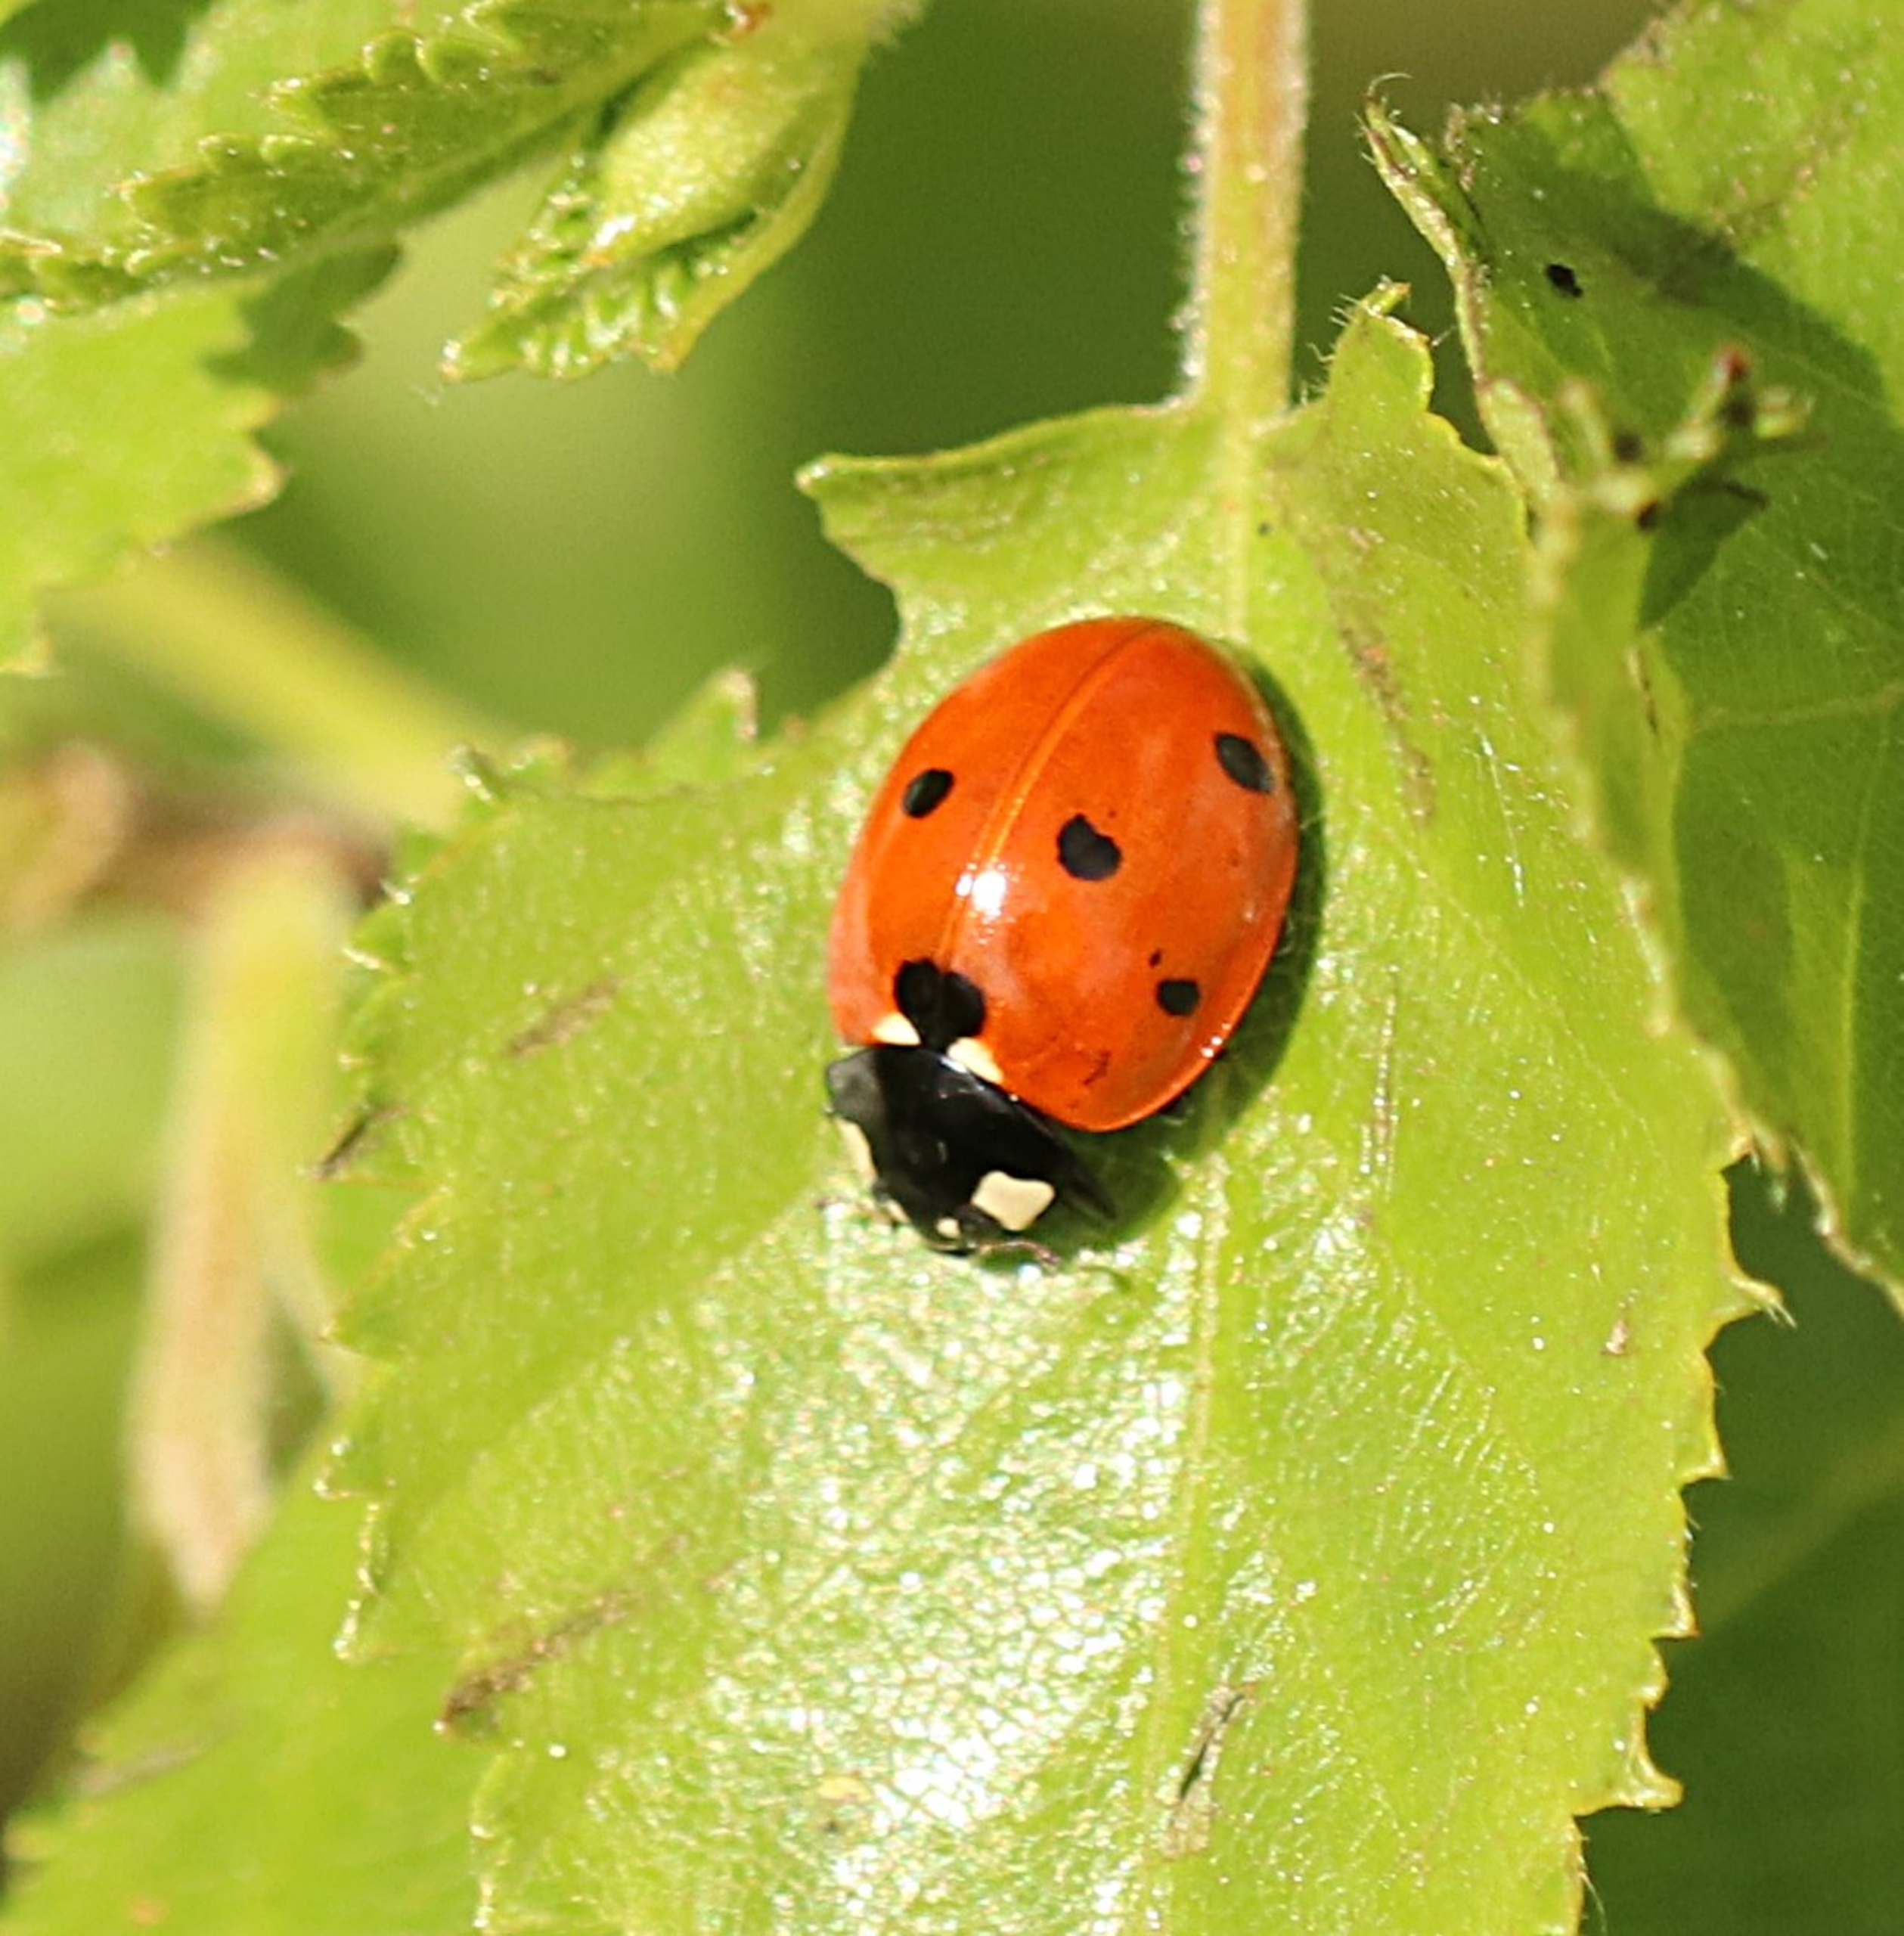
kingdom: Animalia
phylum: Arthropoda
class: Insecta
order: Coleoptera
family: Coccinellidae
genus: Coccinella
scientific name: Coccinella septempunctata
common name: Syvplettet mariehøne
